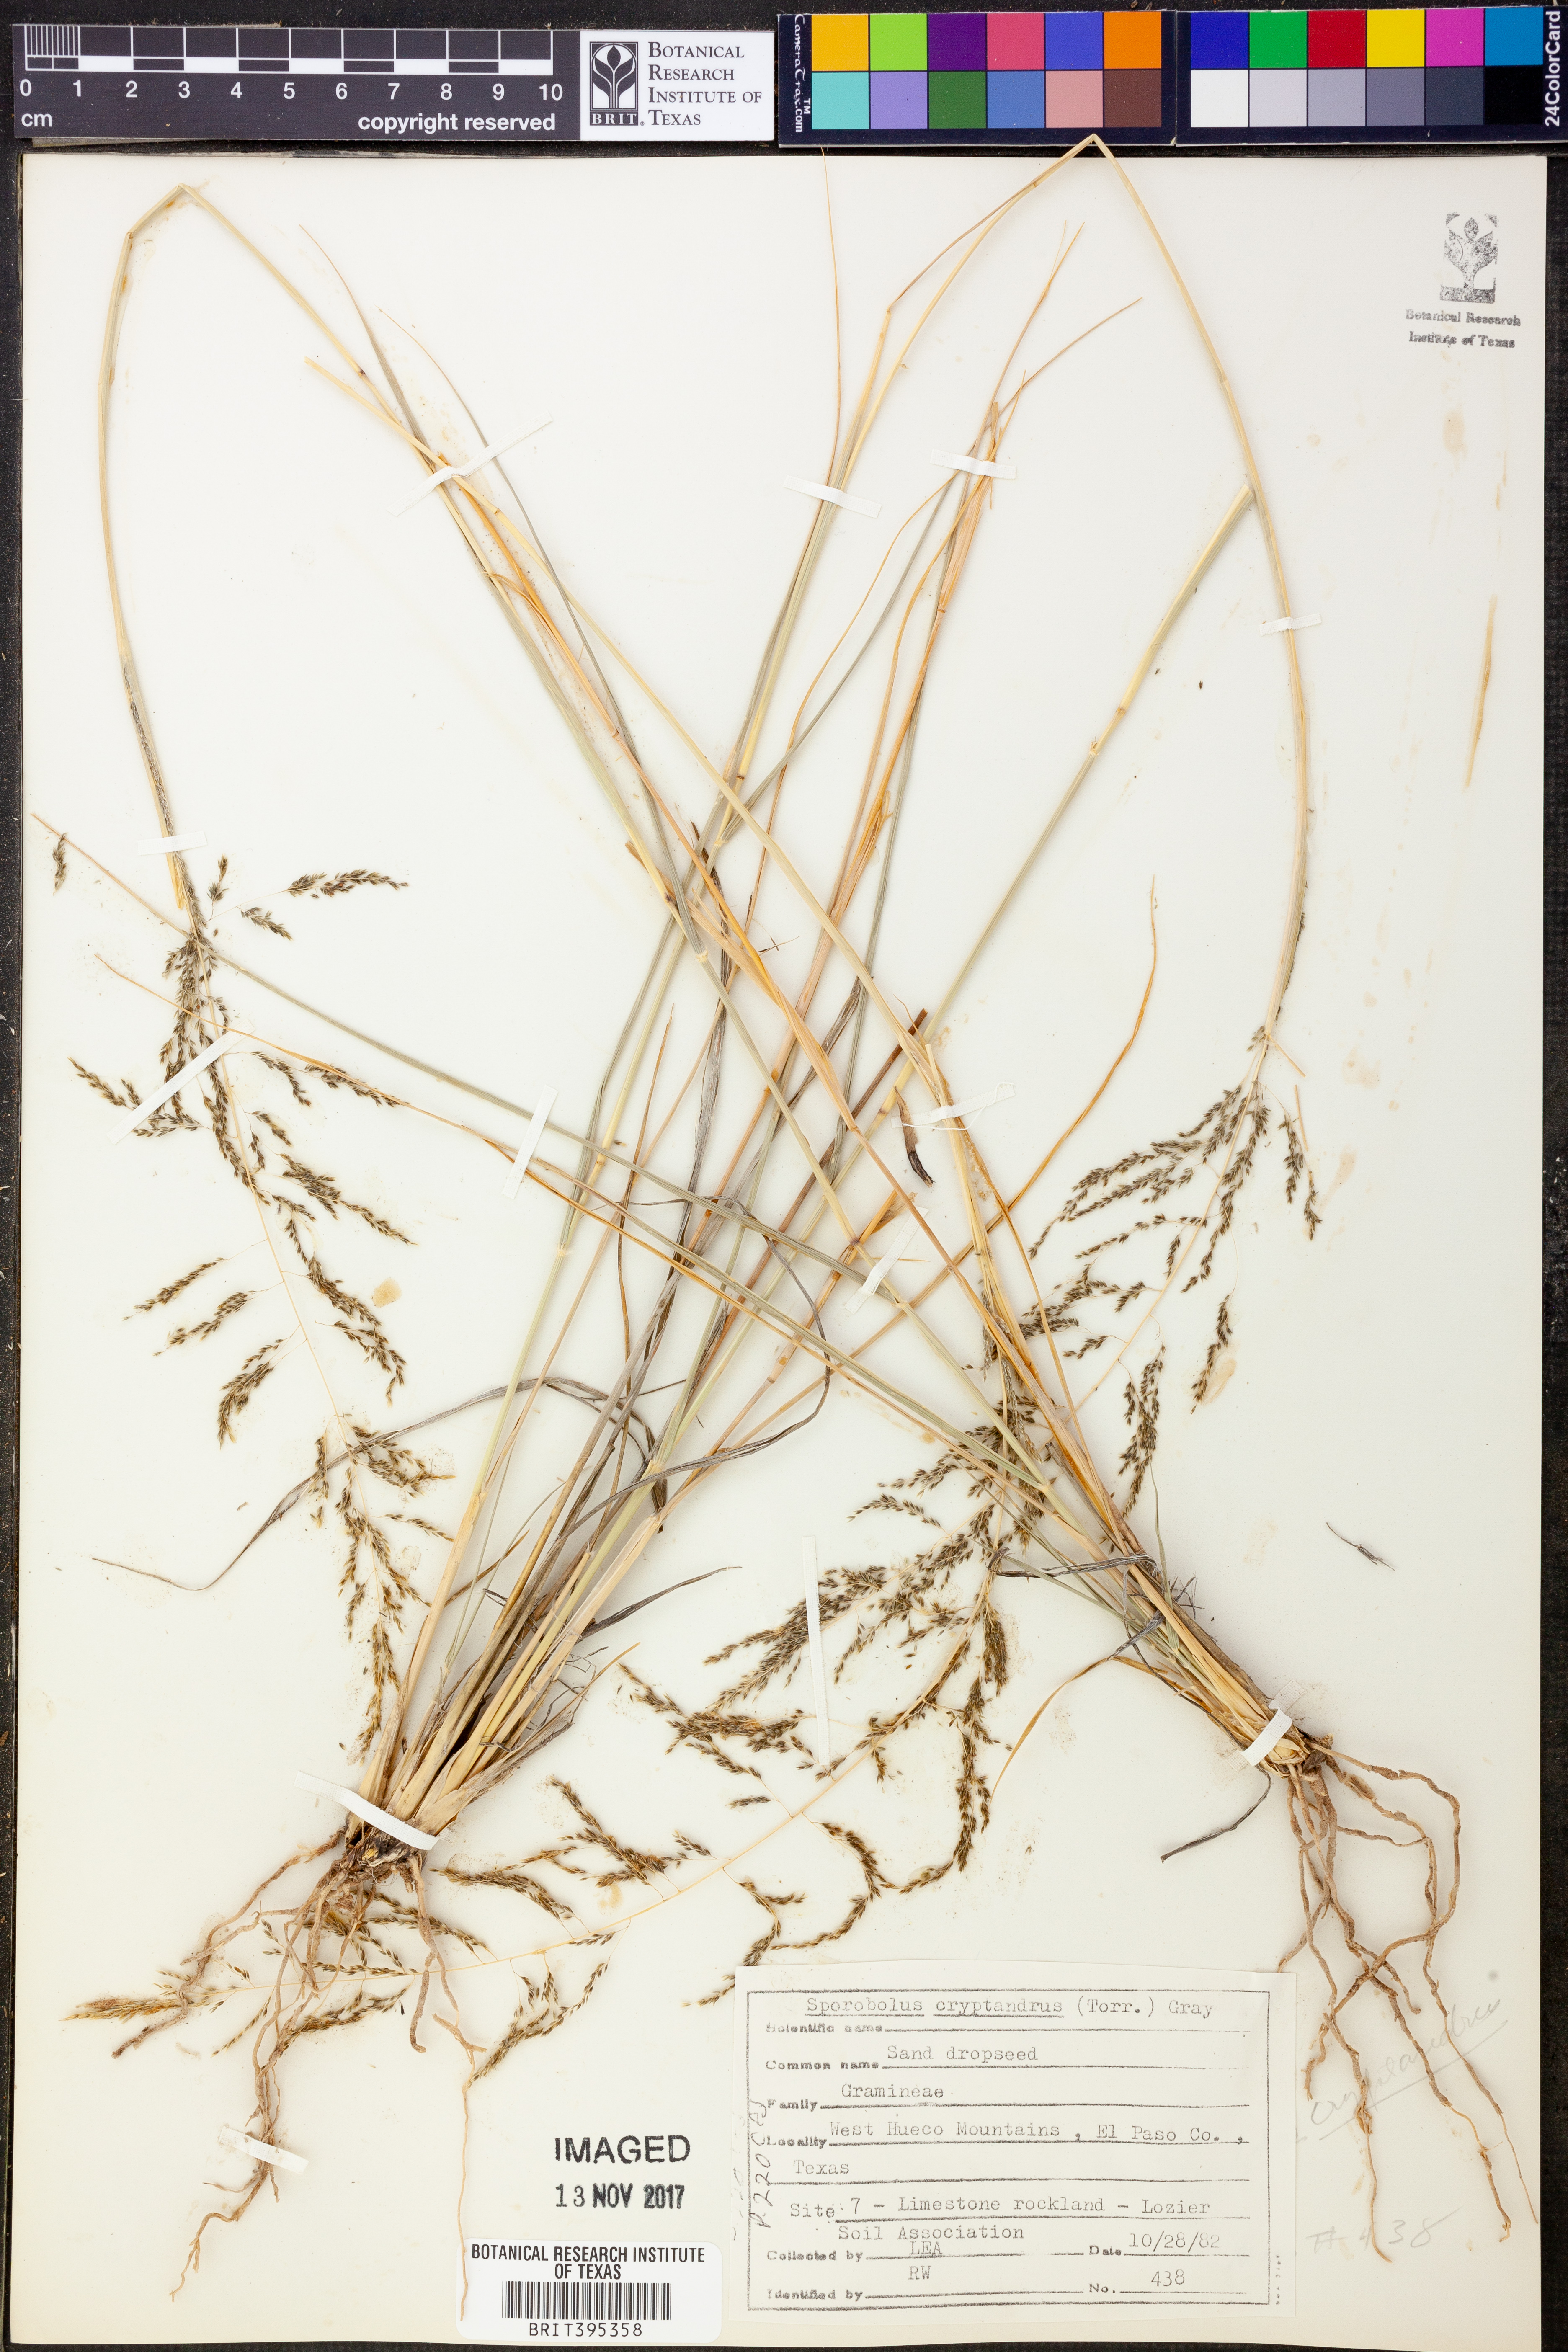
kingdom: Plantae
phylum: Tracheophyta
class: Liliopsida
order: Poales
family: Poaceae
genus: Sporobolus
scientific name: Sporobolus cryptandrus
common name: Sand dropseed
